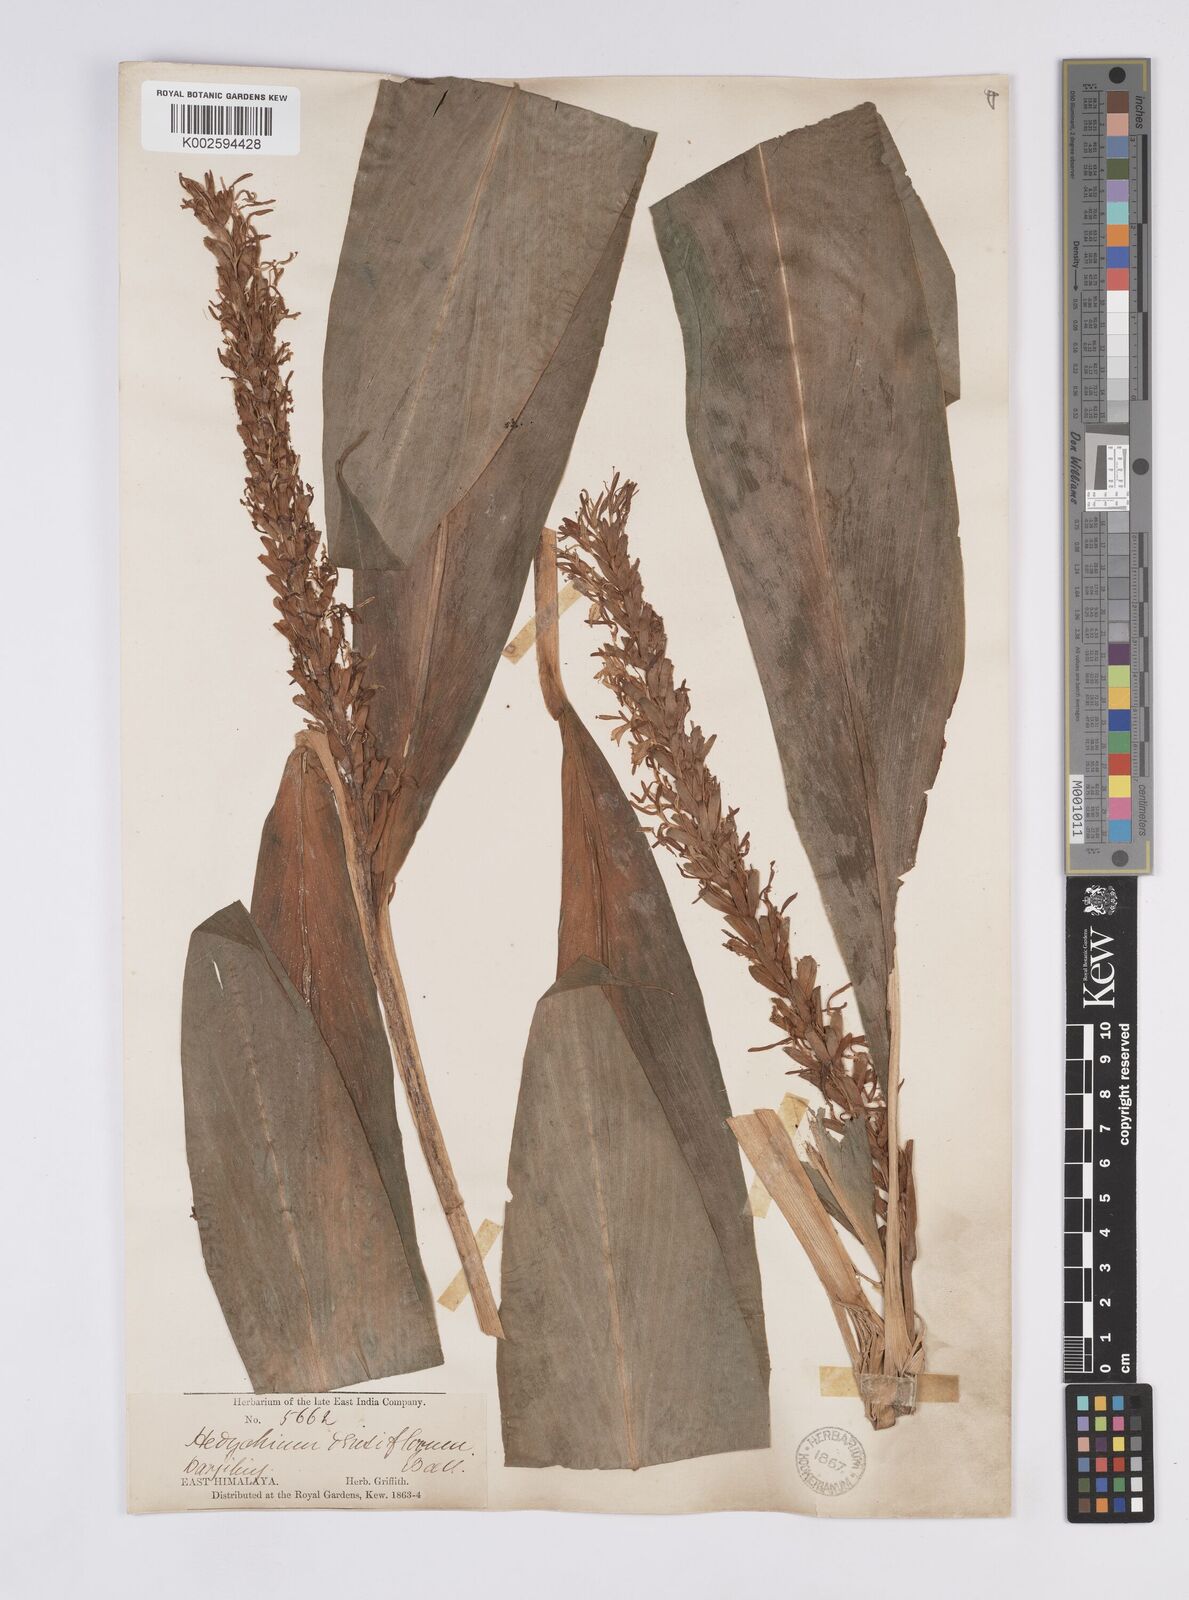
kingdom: Plantae
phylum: Tracheophyta
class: Liliopsida
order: Zingiberales
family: Zingiberaceae
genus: Hedychium
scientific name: Hedychium densiflorum
